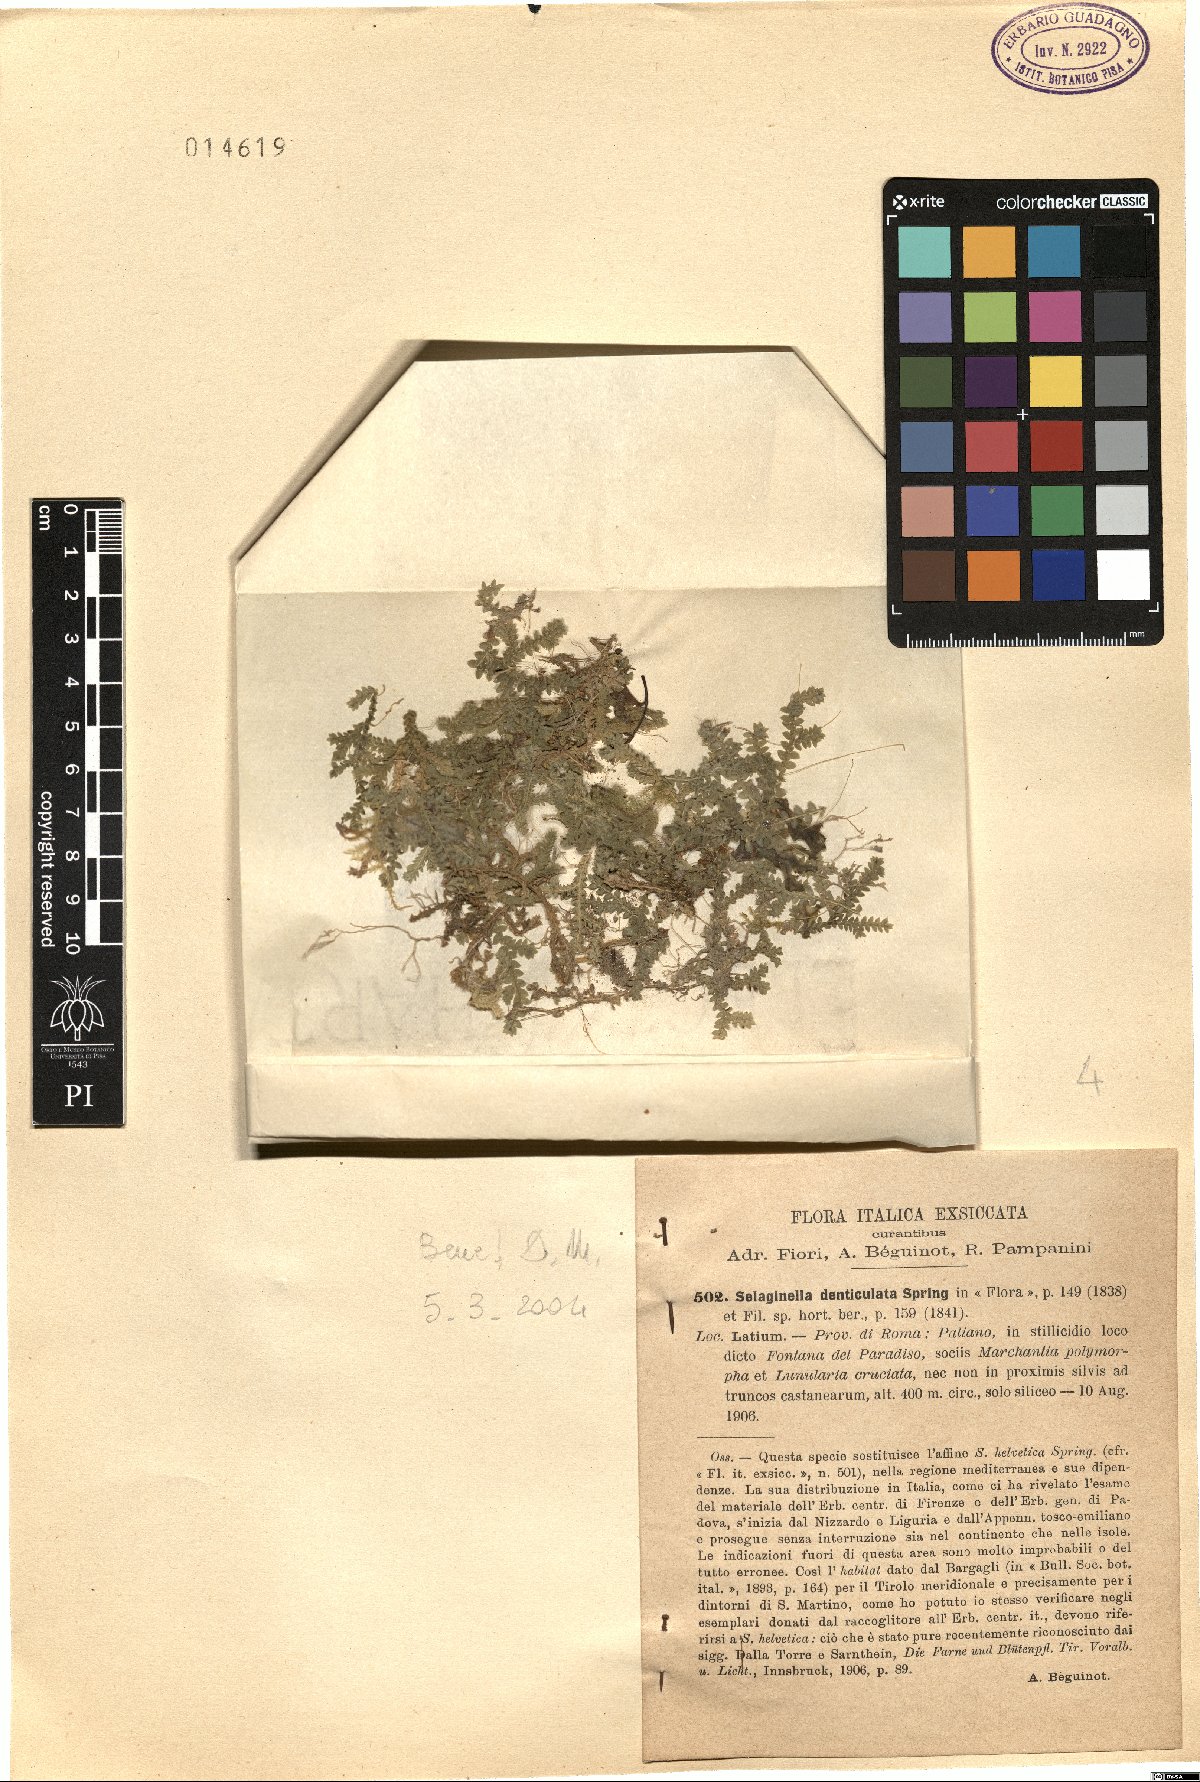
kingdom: Plantae
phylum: Tracheophyta
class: Lycopodiopsida
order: Selaginellales
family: Selaginellaceae
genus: Selaginella
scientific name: Selaginella denticulata
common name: Toothed-leaved clubmoss
